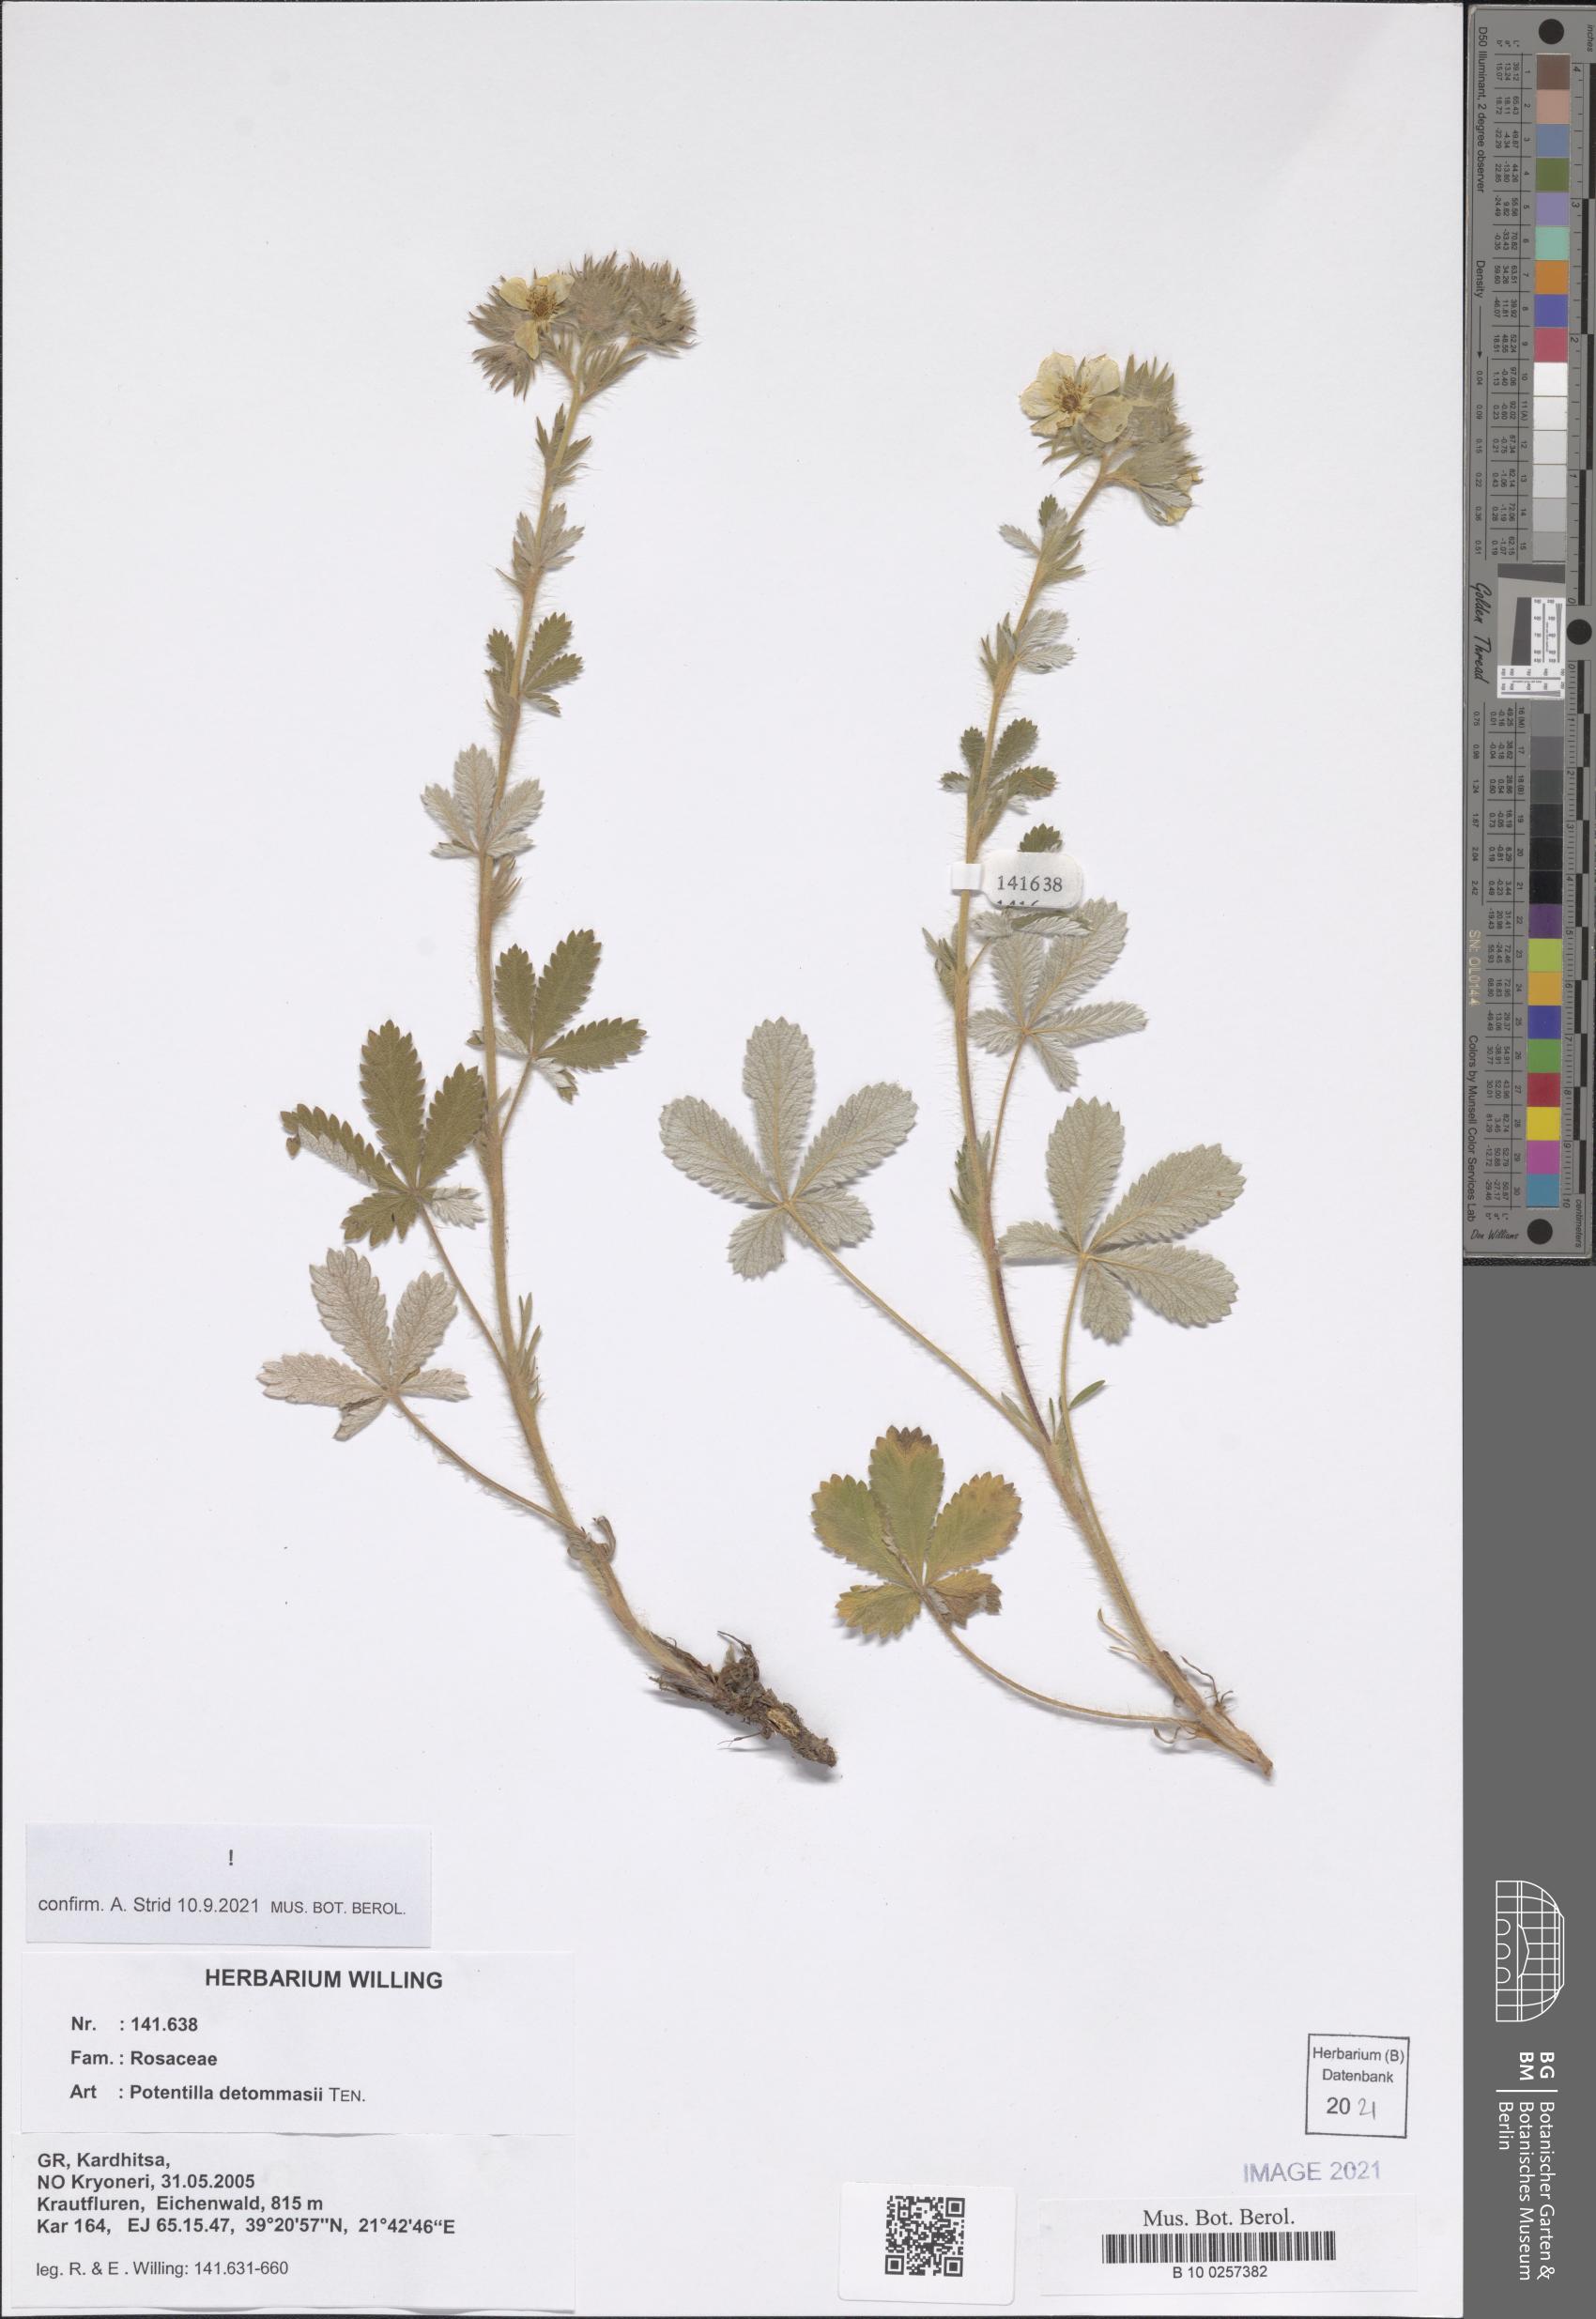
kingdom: Plantae
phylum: Tracheophyta
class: Magnoliopsida
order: Rosales
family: Rosaceae
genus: Potentilla
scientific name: Potentilla detommasii
